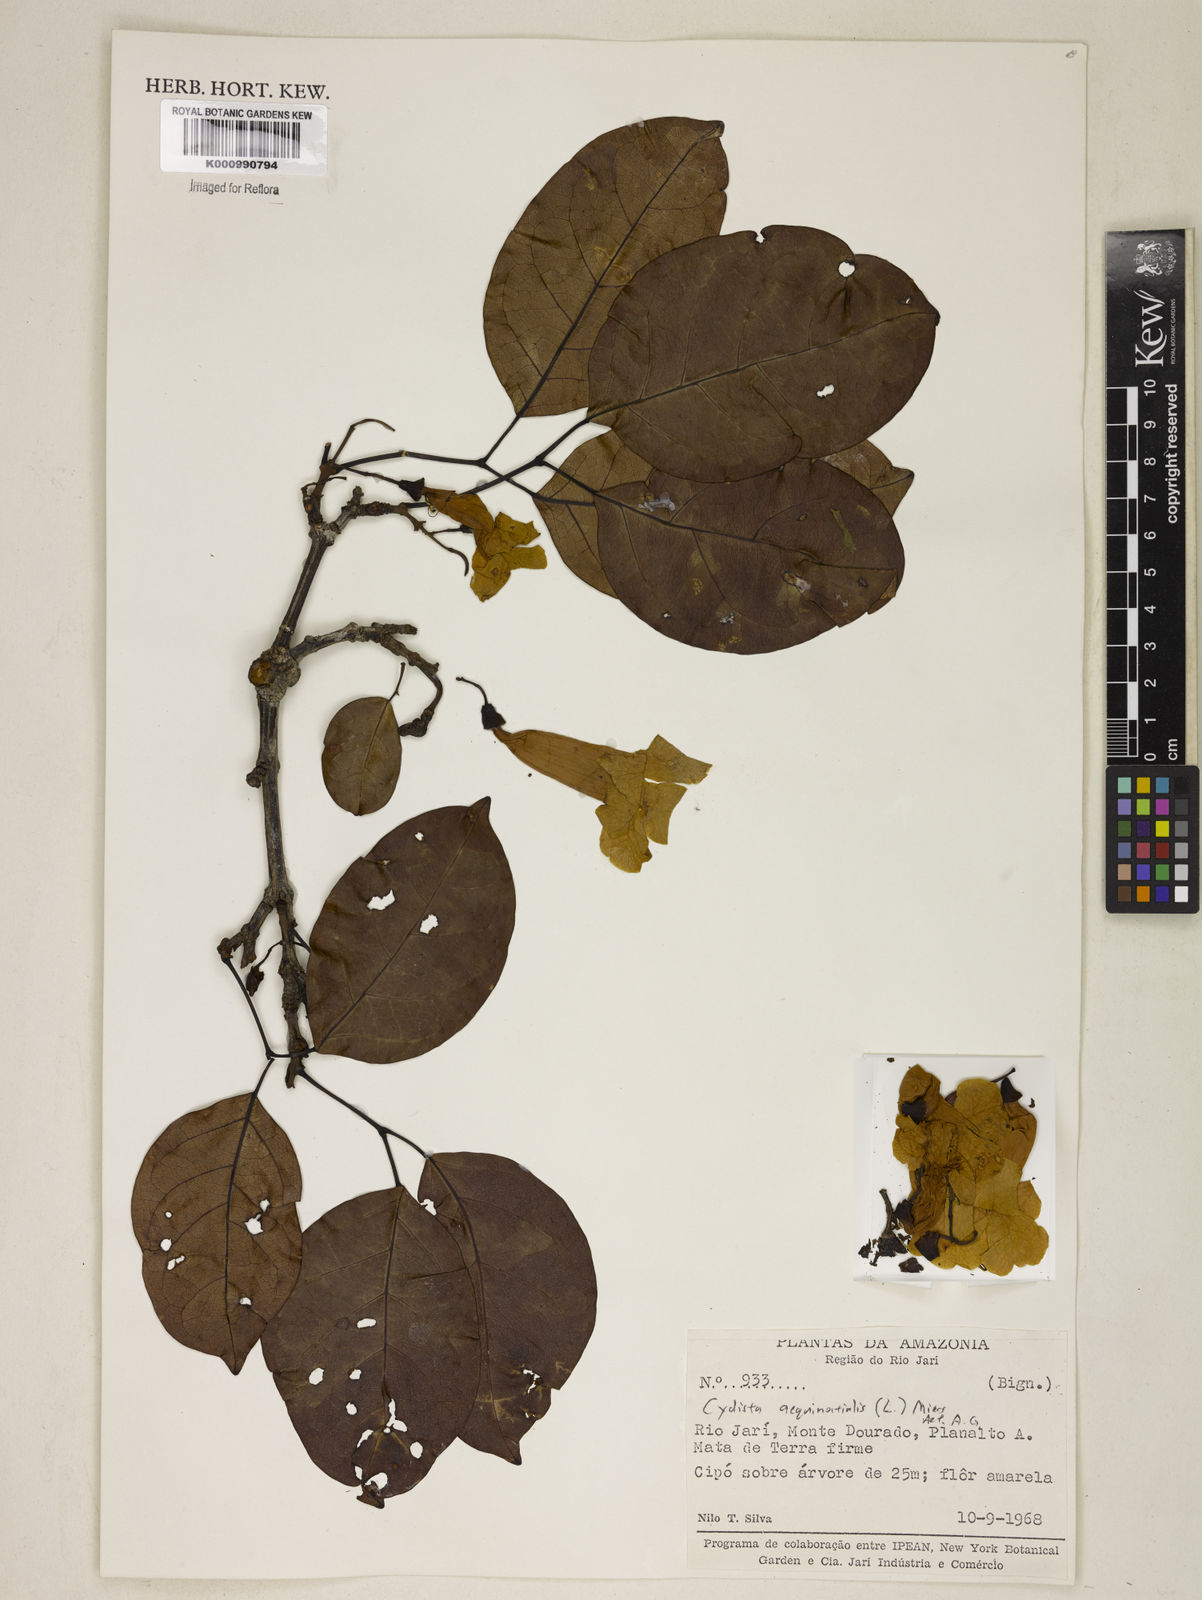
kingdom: Plantae
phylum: Tracheophyta
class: Magnoliopsida
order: Lamiales
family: Bignoniaceae
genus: Bignonia
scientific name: Bignonia aequinoctialis
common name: Garlicvine
